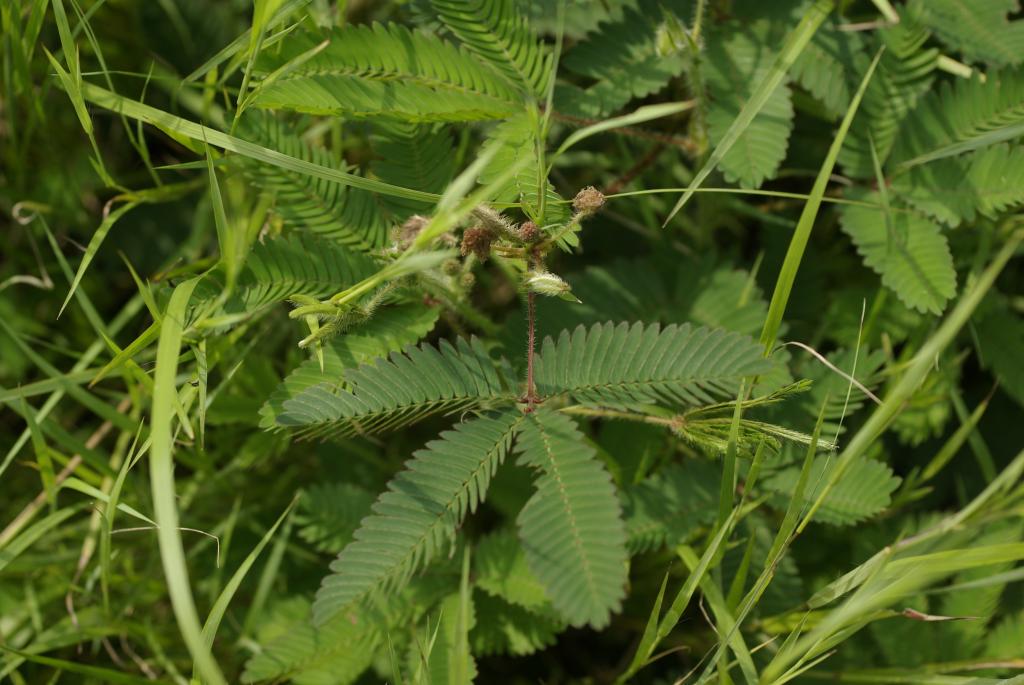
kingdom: Plantae
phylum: Tracheophyta
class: Magnoliopsida
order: Fabales
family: Fabaceae
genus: Mimosa
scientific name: Mimosa pudica
